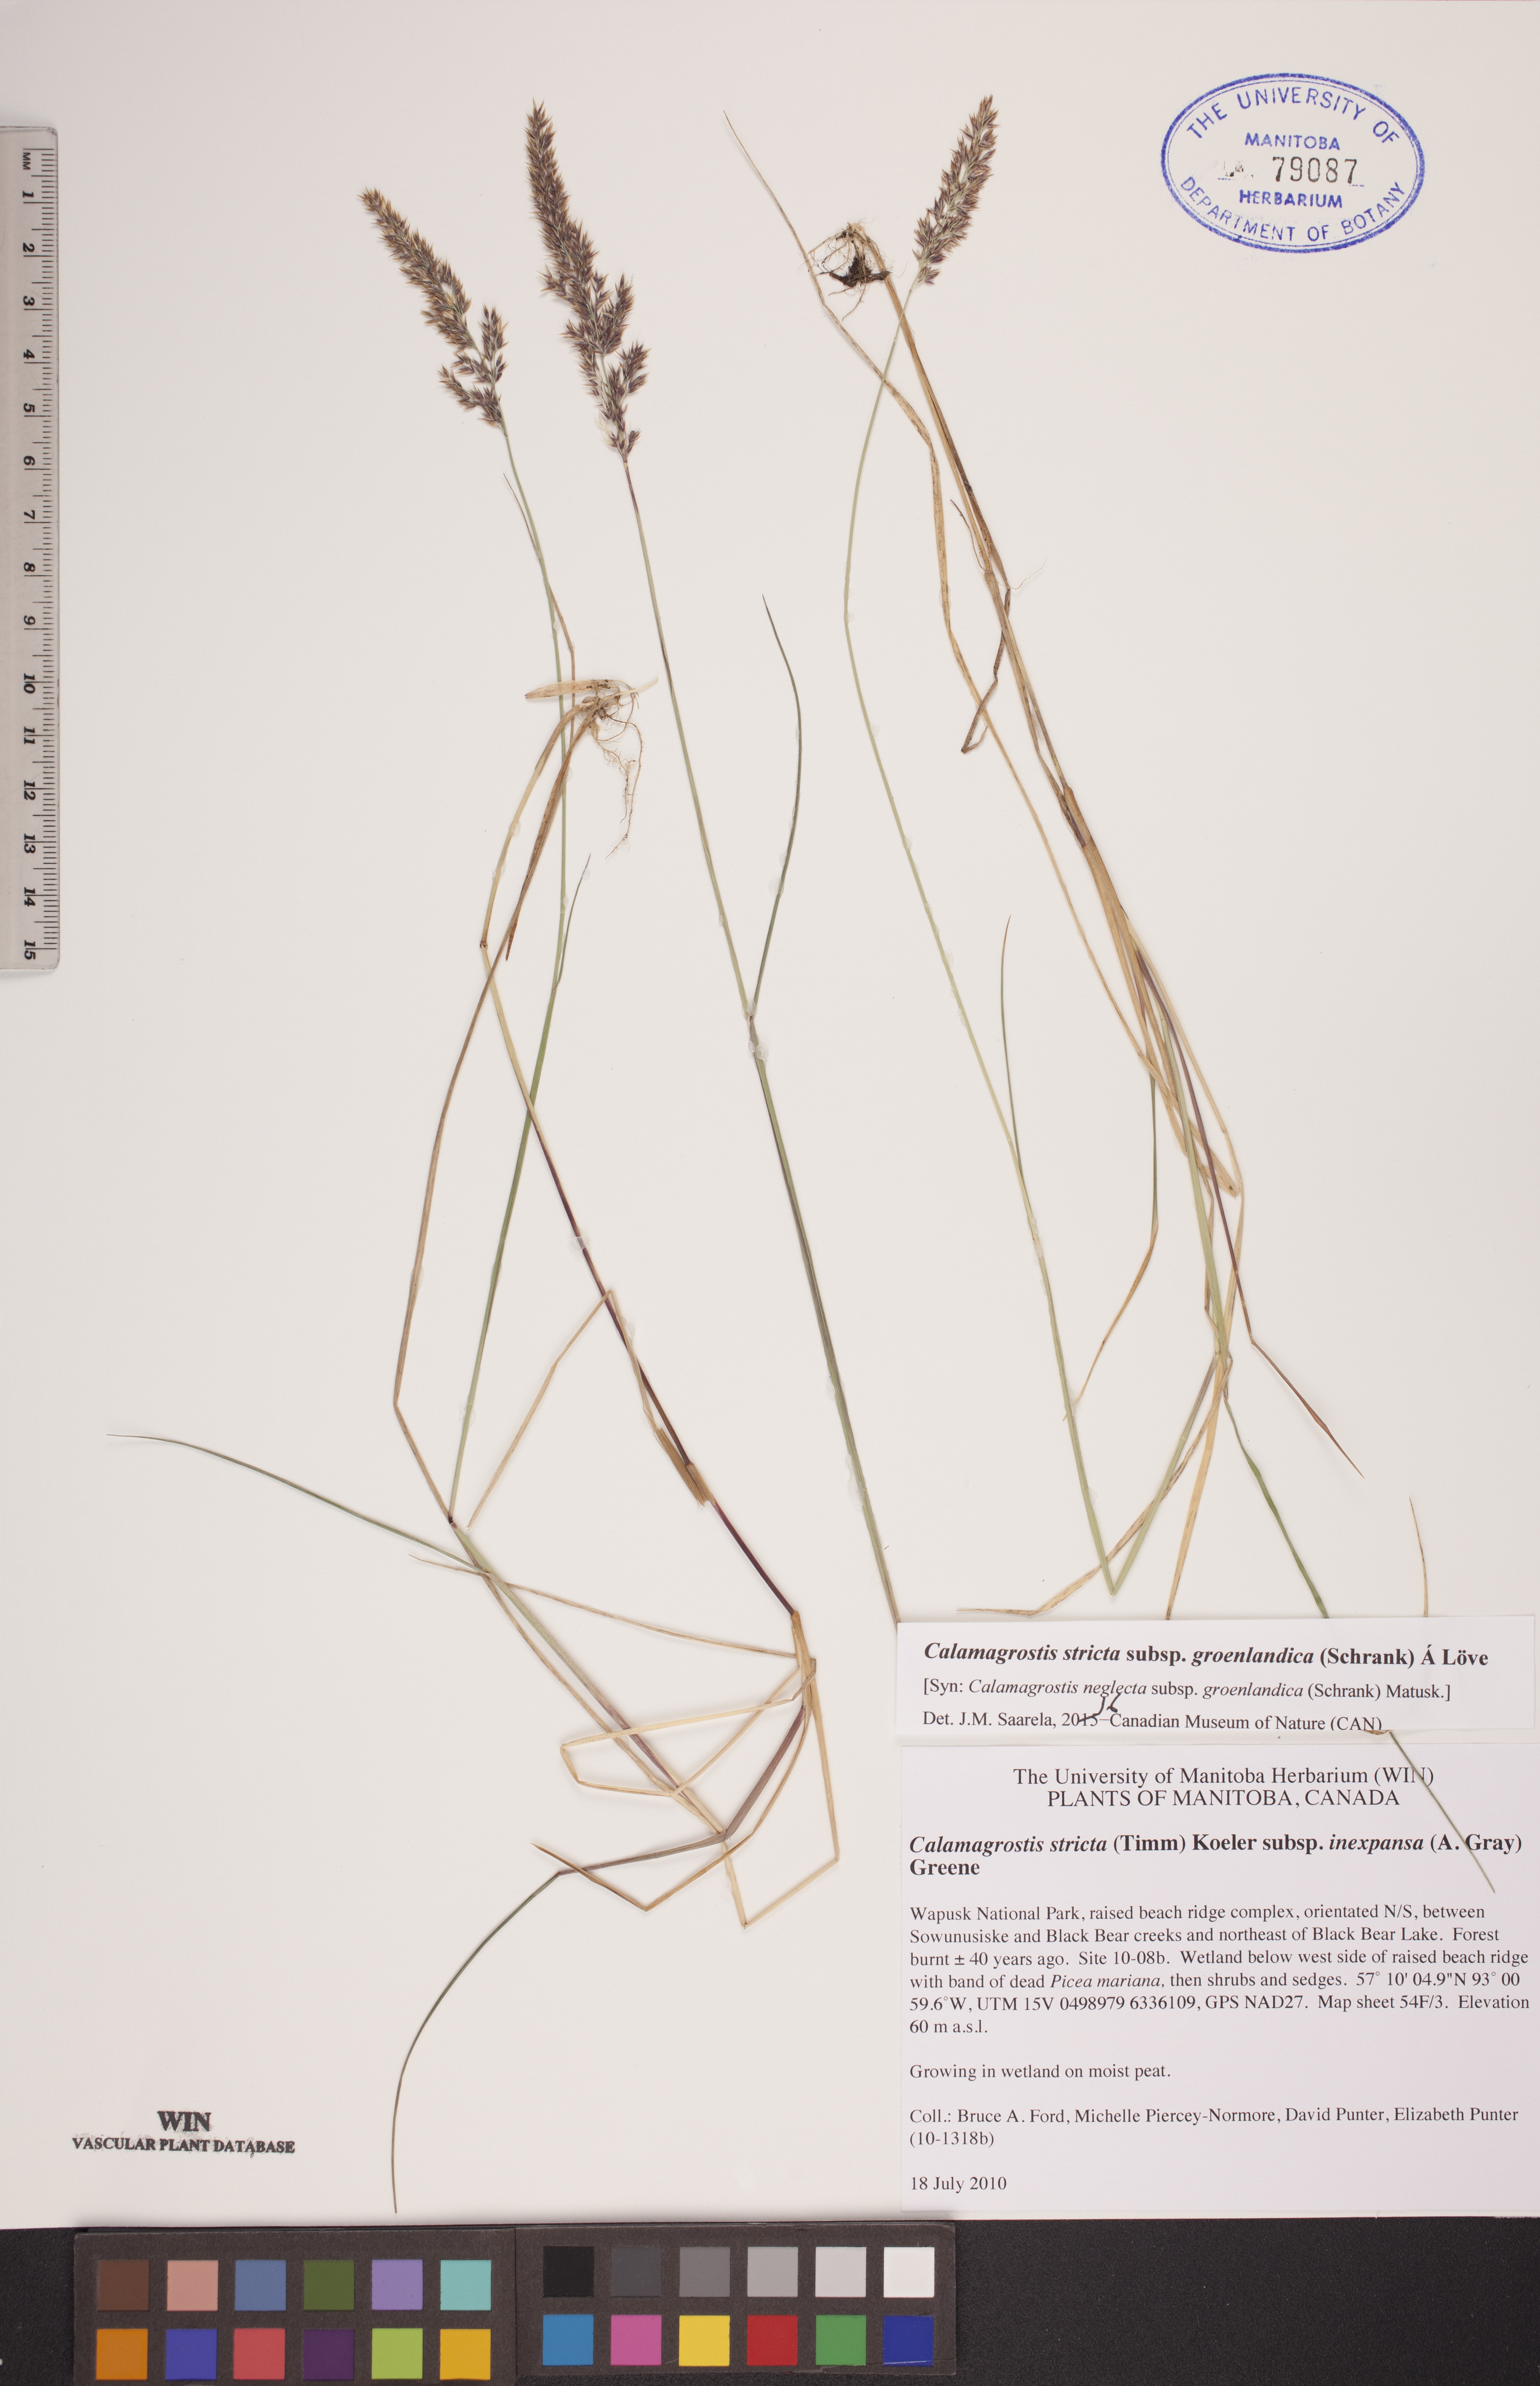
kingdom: Plantae
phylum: Tracheophyta
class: Liliopsida
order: Poales
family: Poaceae
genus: Calamagrostis
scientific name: Calamagrostis stricta
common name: Narrow small-reed
